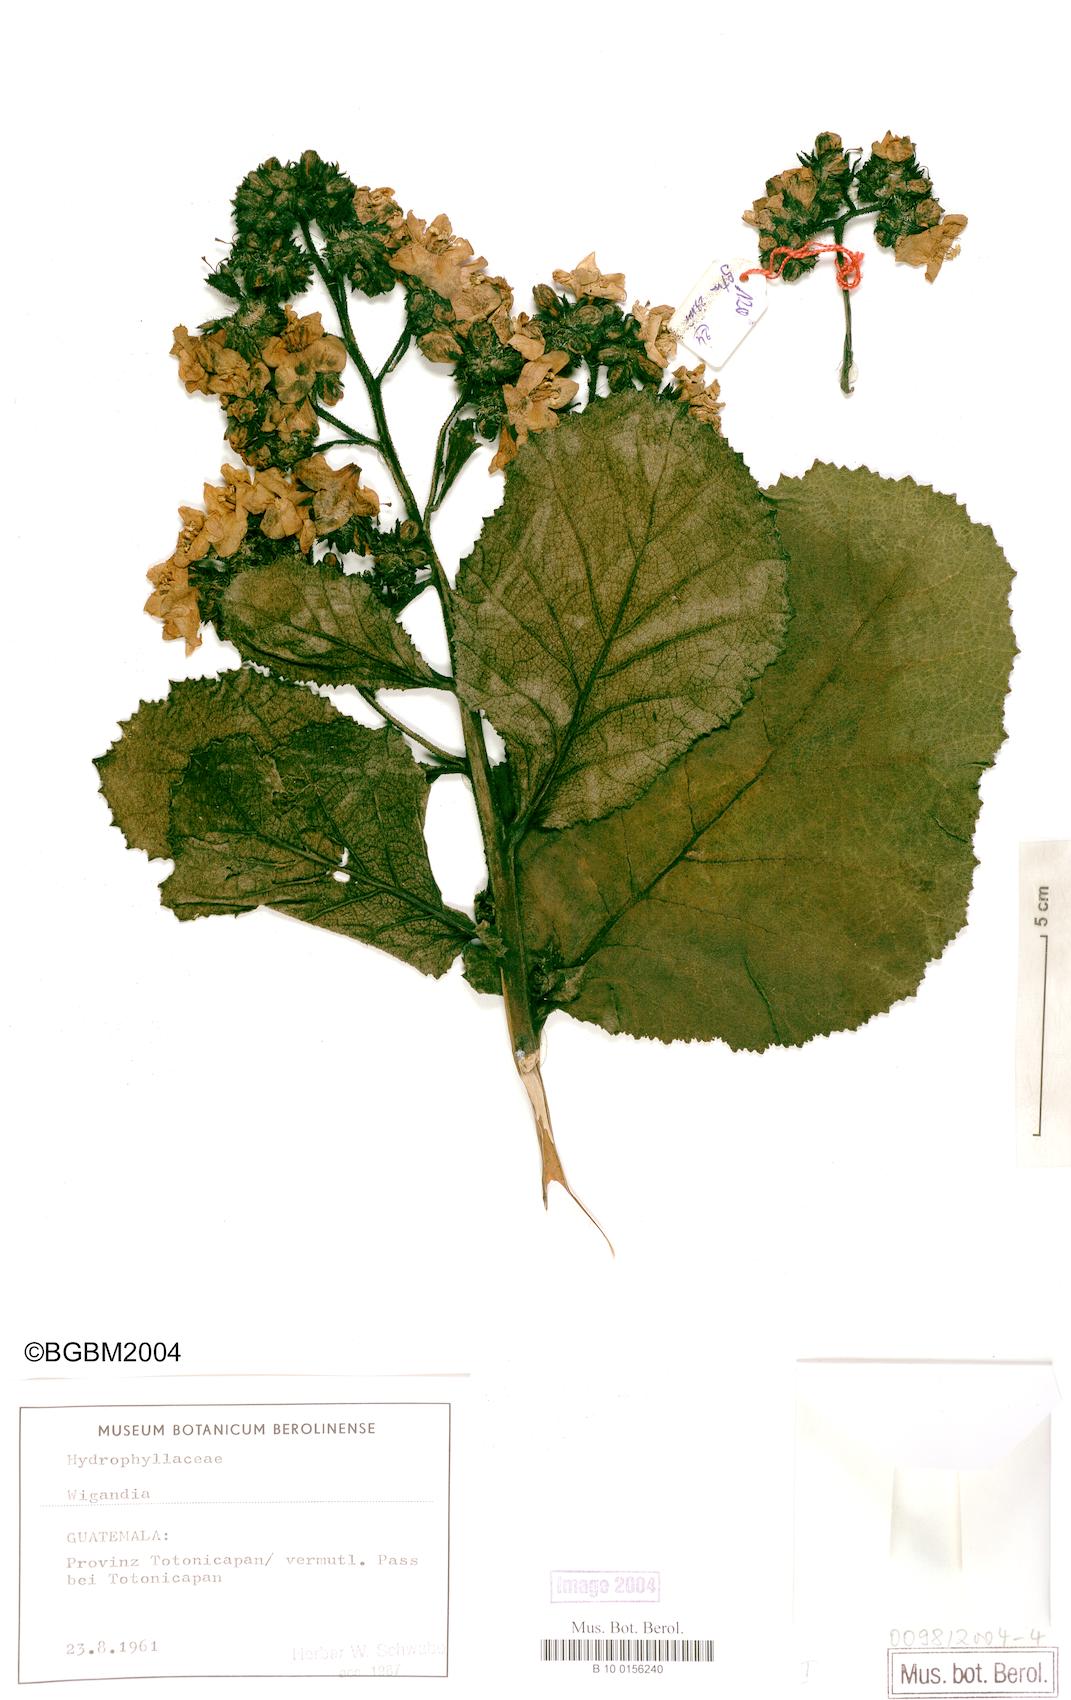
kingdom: Plantae
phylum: Tracheophyta
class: Magnoliopsida
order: Boraginales
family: Hydrophyllaceae
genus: Wiganda
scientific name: Wiganda
